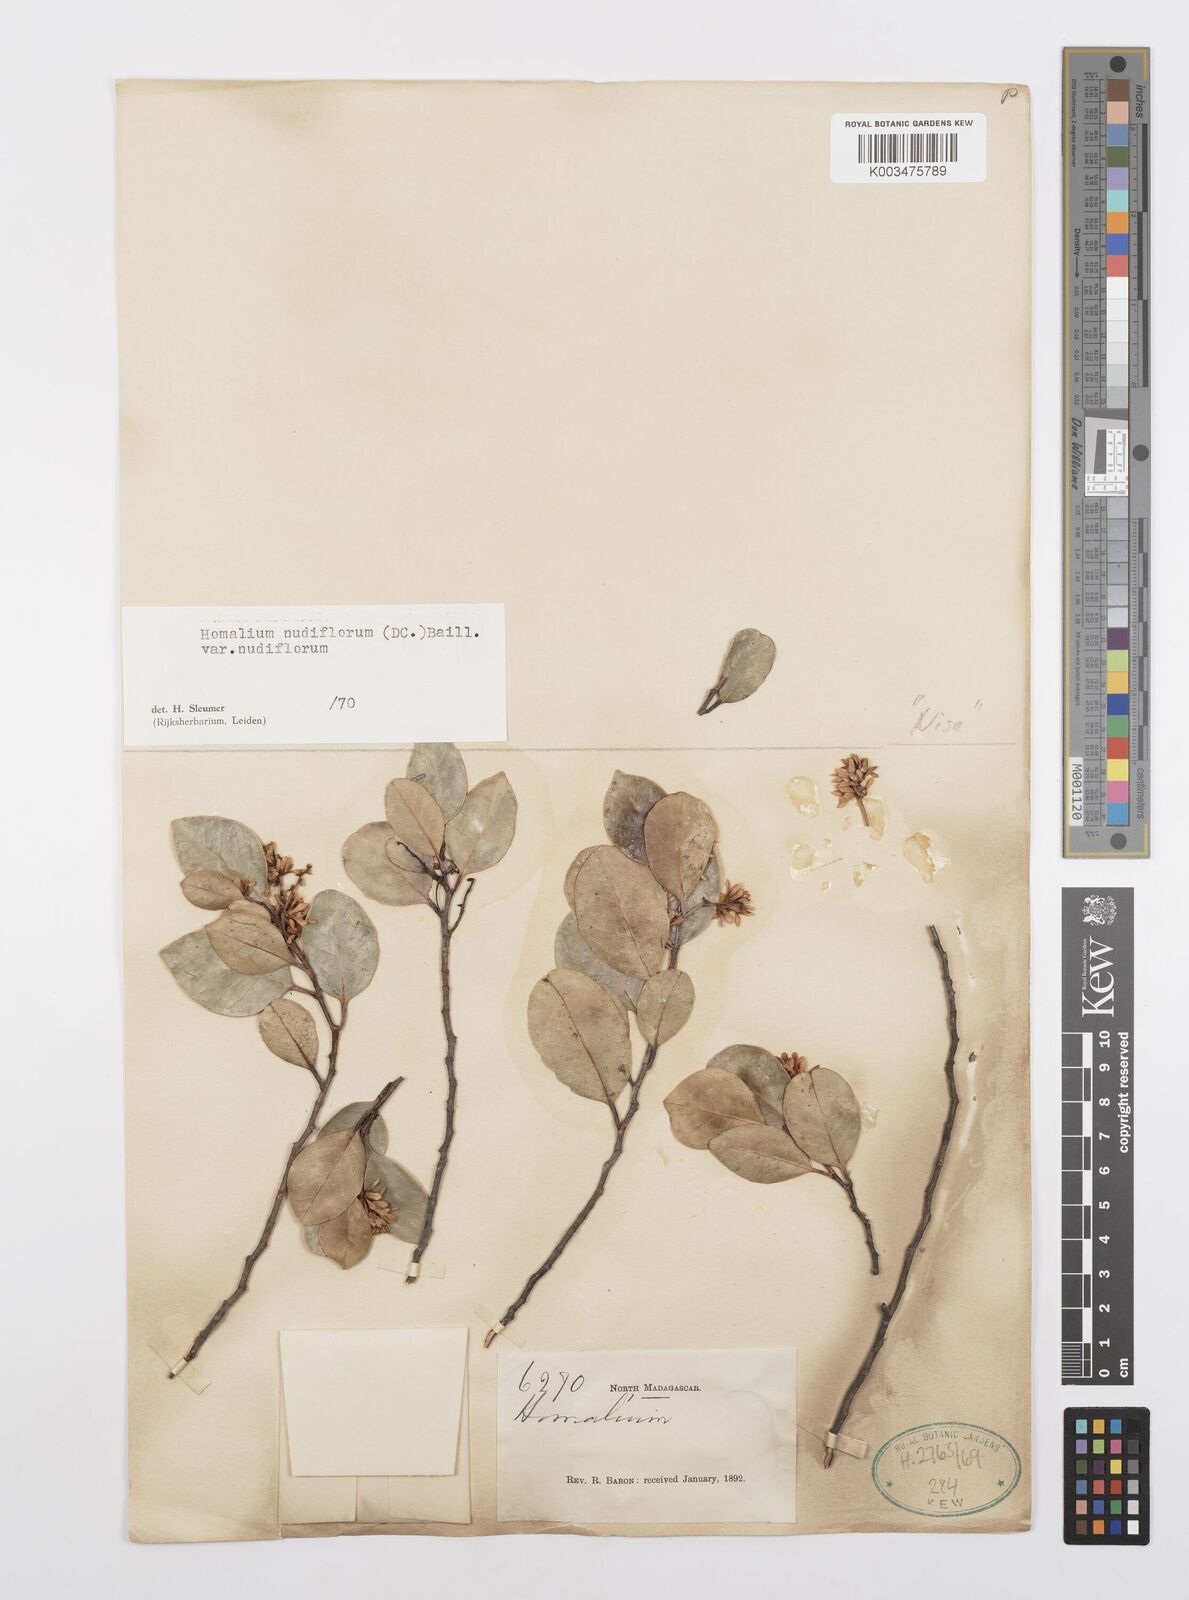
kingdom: Plantae
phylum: Tracheophyta
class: Magnoliopsida
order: Malpighiales
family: Salicaceae
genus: Homalium
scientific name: Homalium nudiflorum
